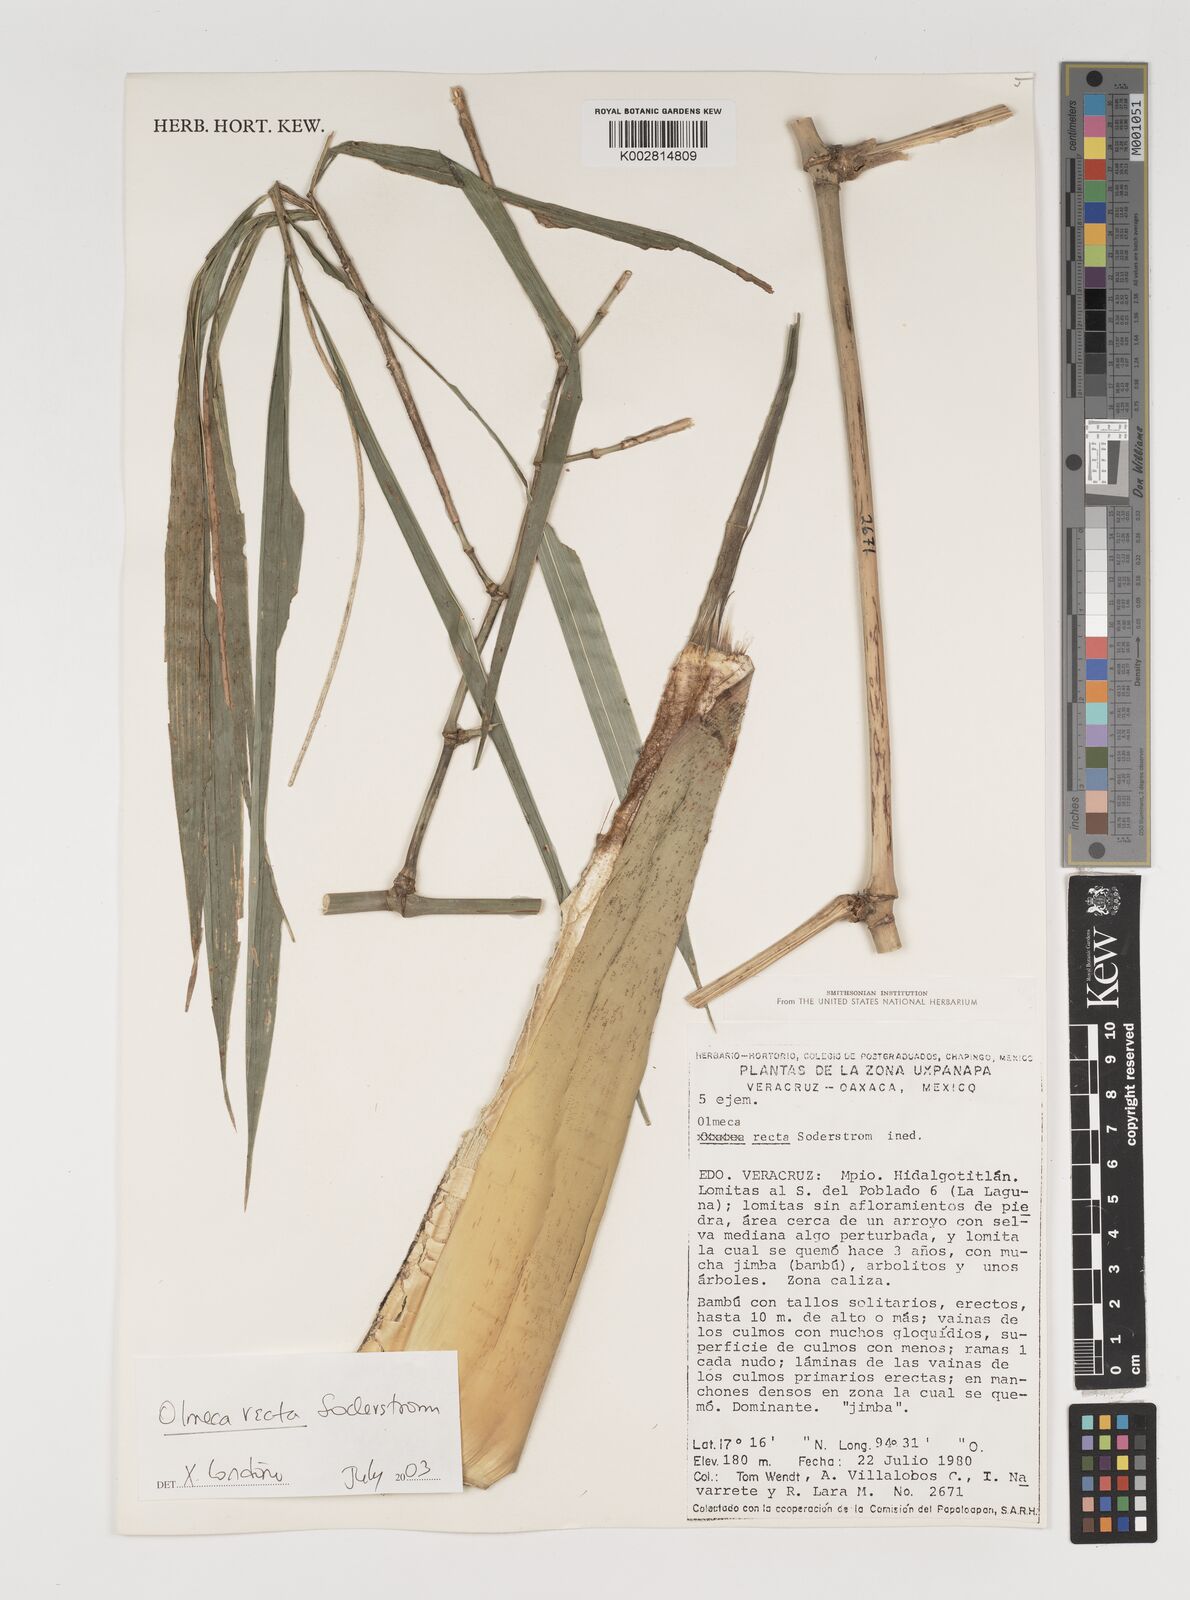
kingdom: Plantae
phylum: Tracheophyta
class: Liliopsida
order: Poales
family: Poaceae
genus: Olmeca
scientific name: Olmeca recta
